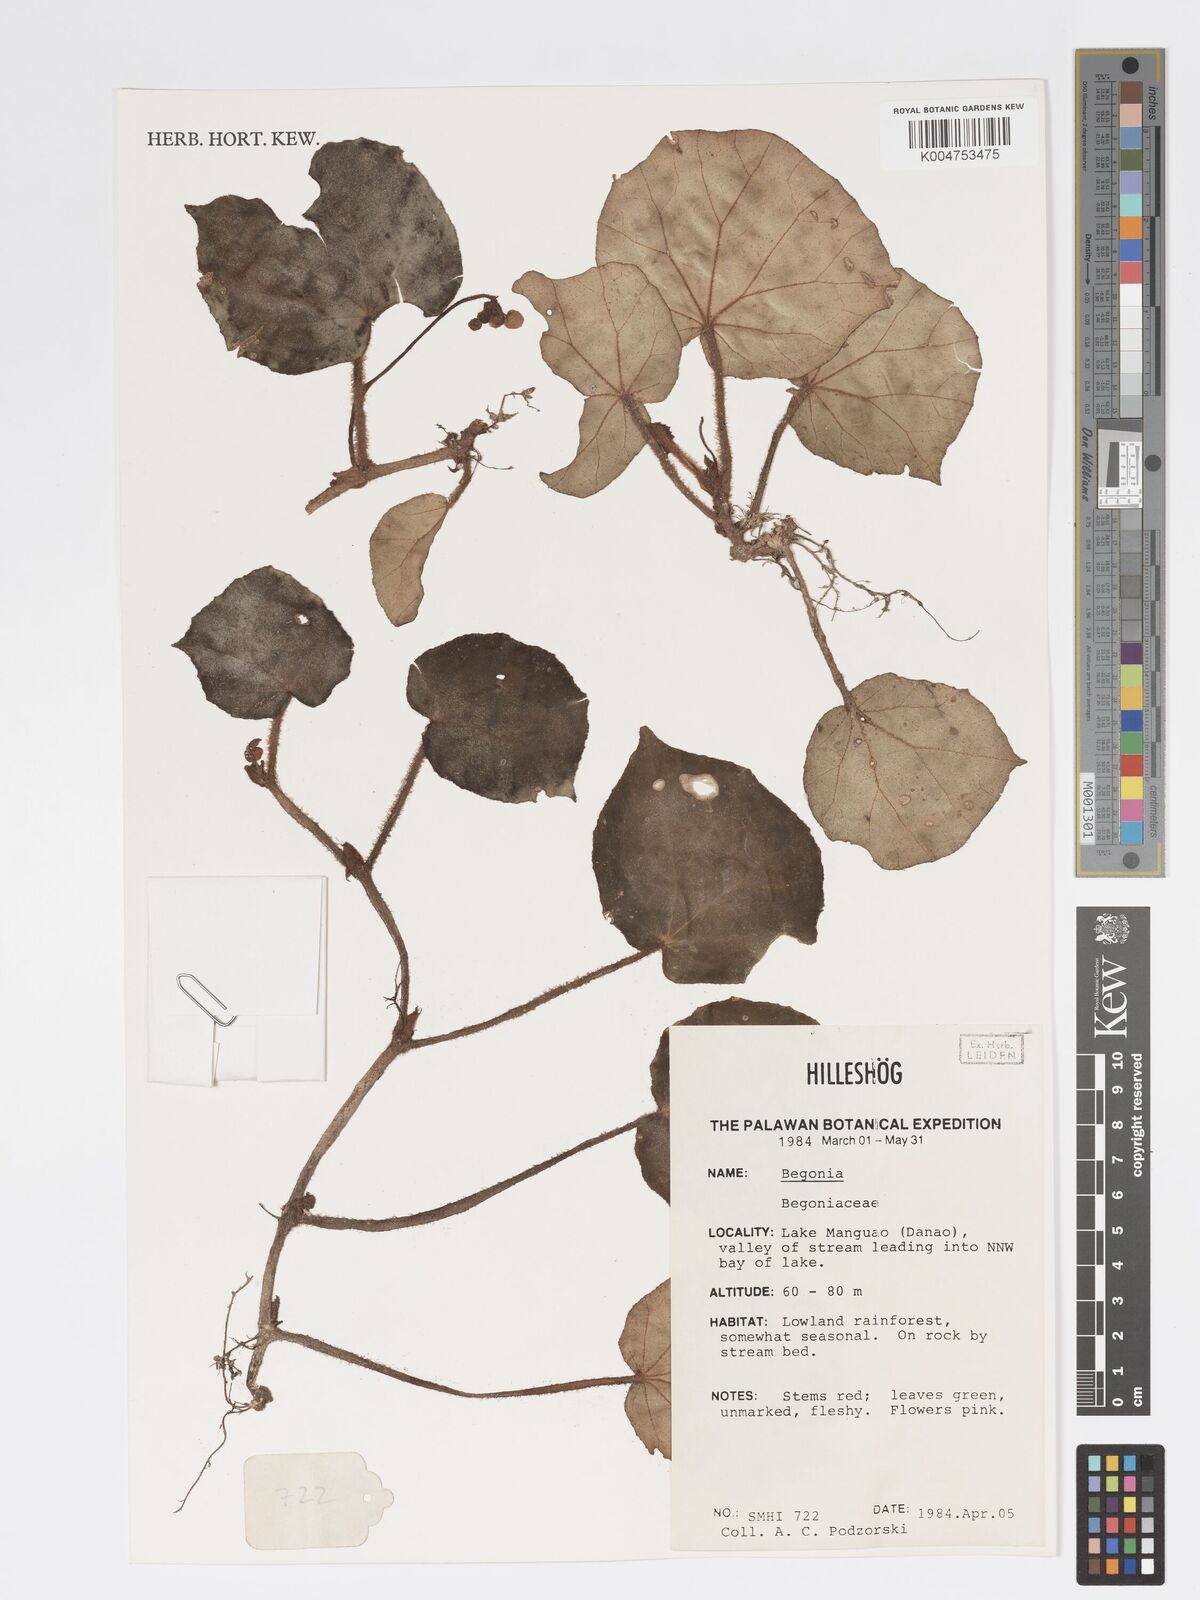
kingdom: Plantae
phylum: Tracheophyta
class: Magnoliopsida
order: Cucurbitales
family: Begoniaceae
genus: Begonia
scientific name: Begonia
